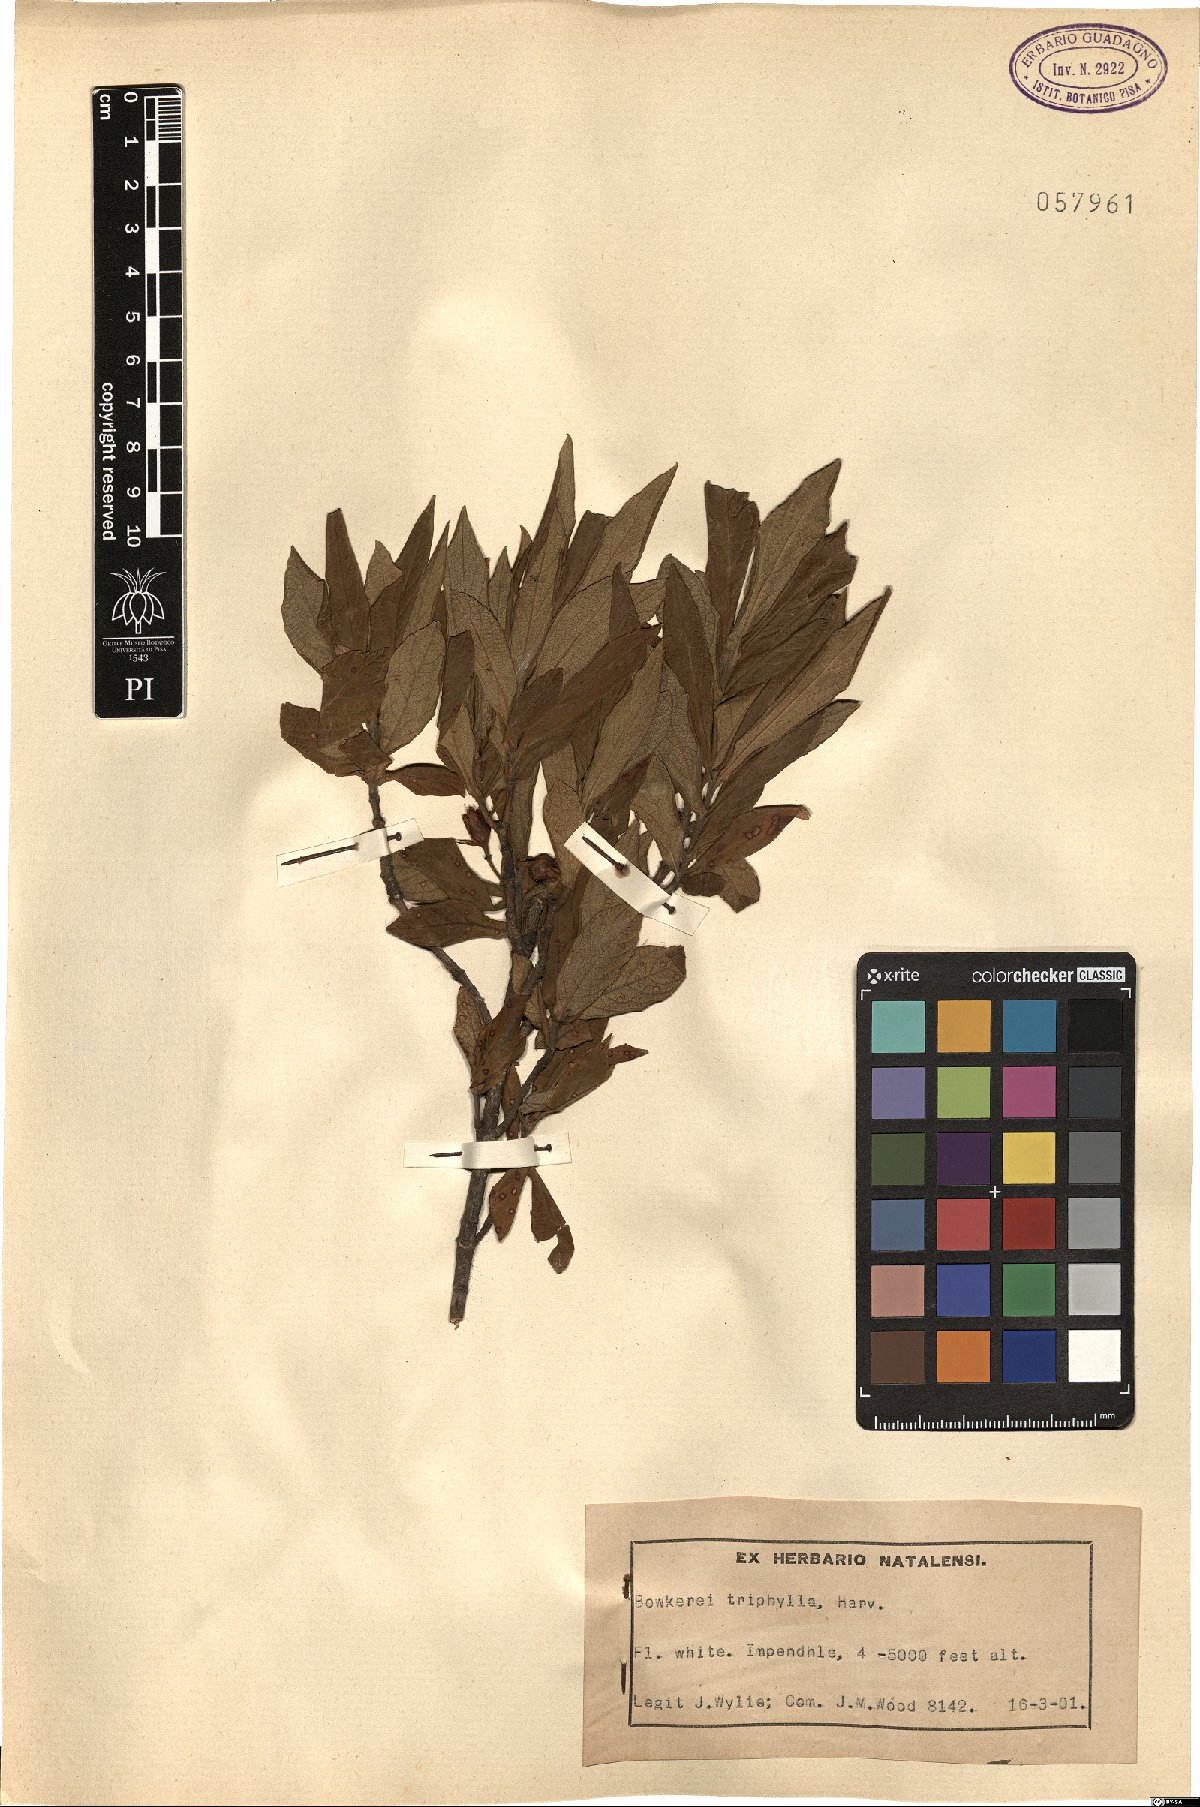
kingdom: Plantae
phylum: Tracheophyta
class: Magnoliopsida
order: Lamiales
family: Stilbaceae
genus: Bowkeria
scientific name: Bowkeria verticillata
